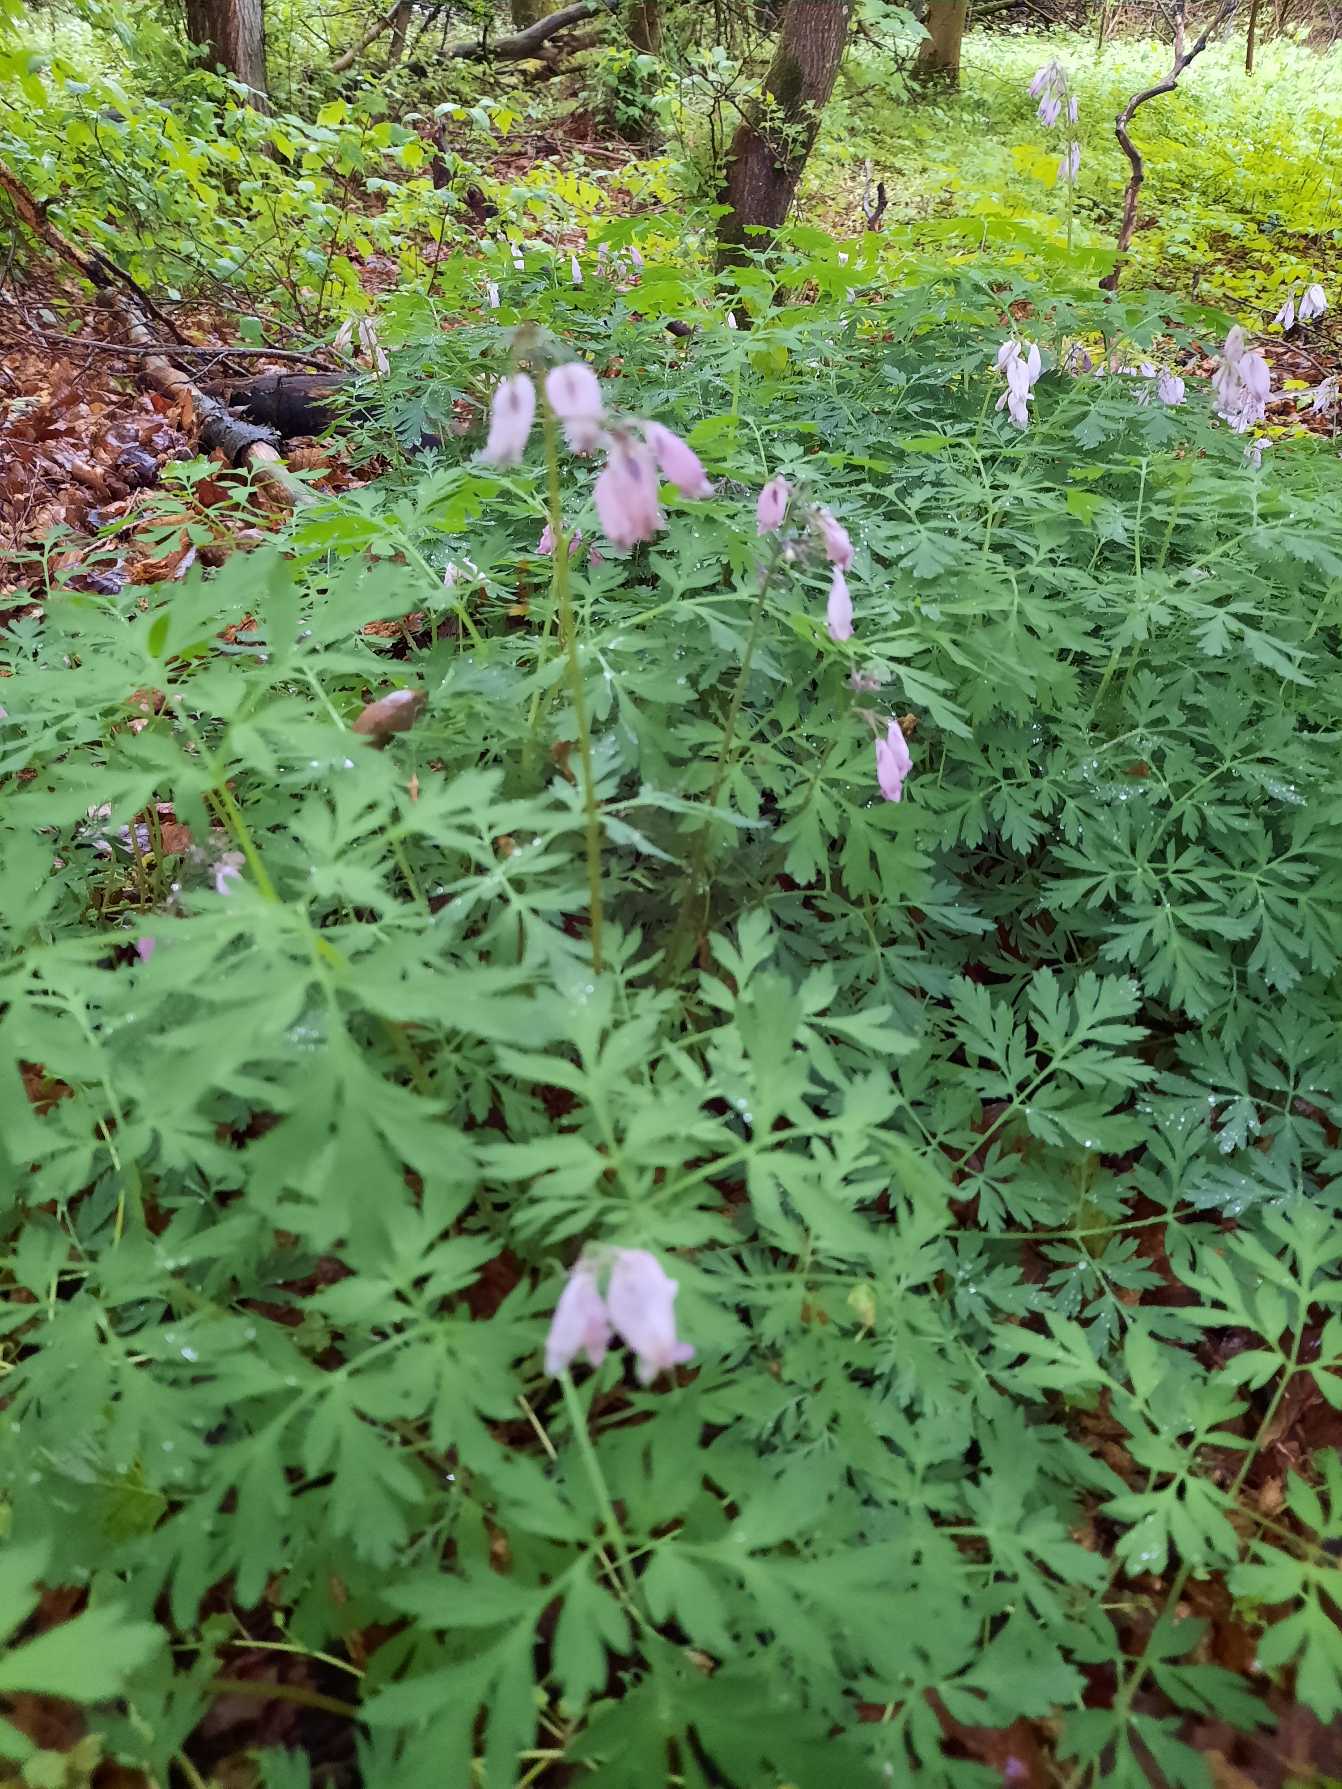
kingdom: Plantae
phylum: Tracheophyta
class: Magnoliopsida
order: Ranunculales
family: Papaveraceae
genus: Dicentra
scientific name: Dicentra formosa
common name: Småhjerte
